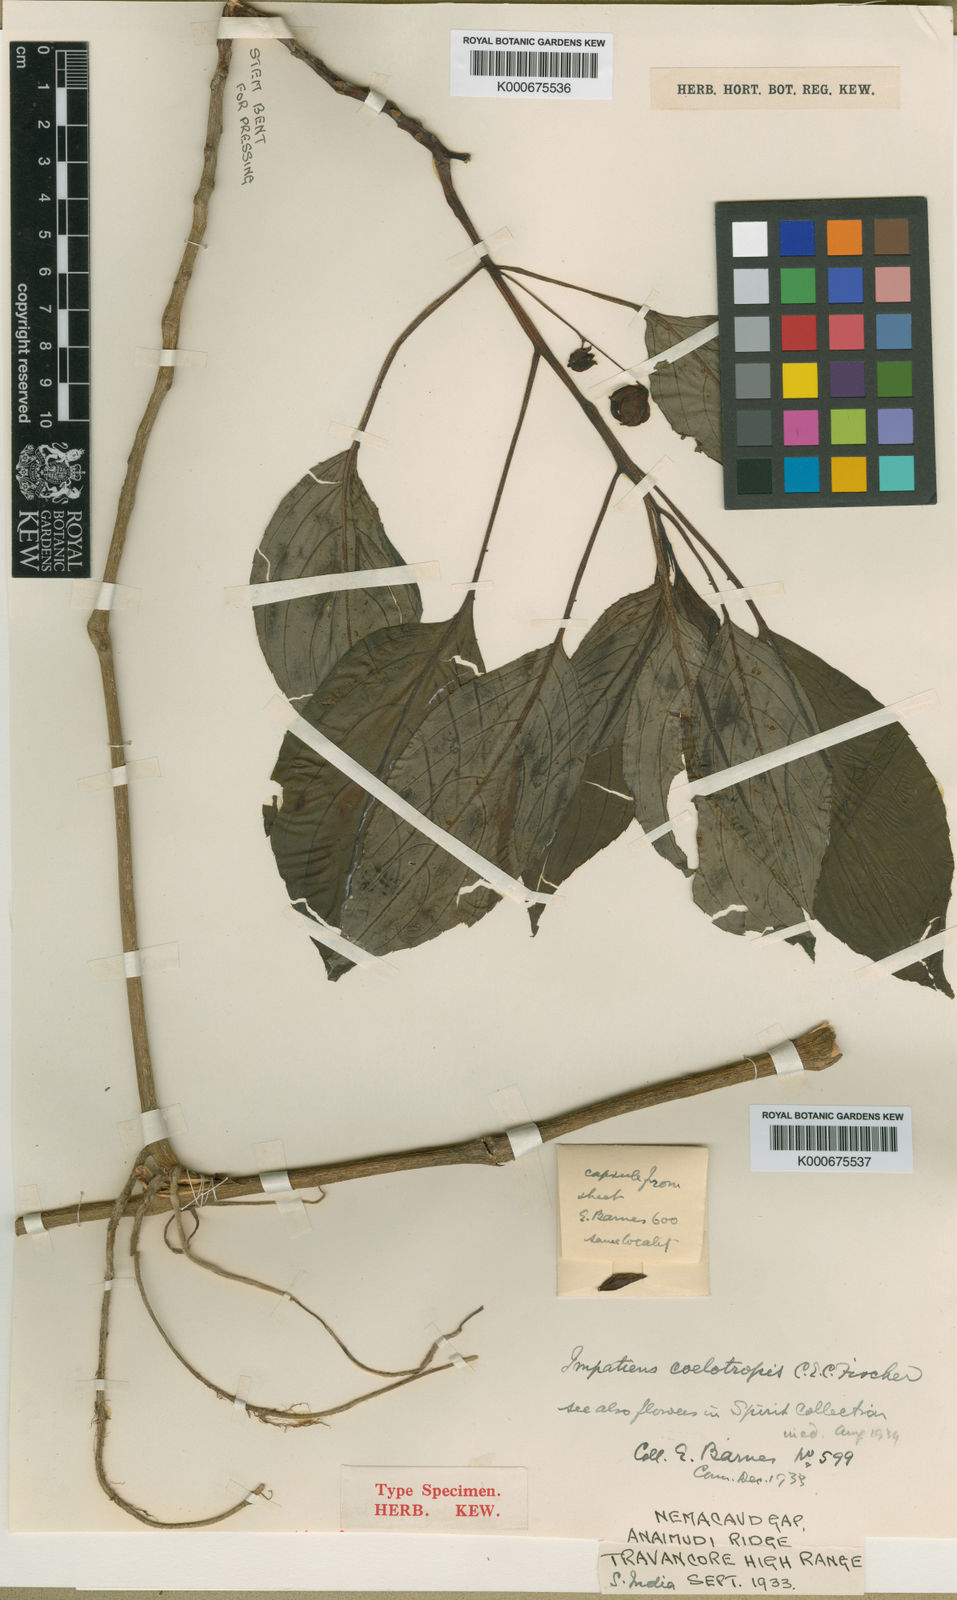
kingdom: Plantae
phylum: Tracheophyta
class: Magnoliopsida
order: Ericales
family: Balsaminaceae
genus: Impatiens
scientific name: Impatiens coelotropis
